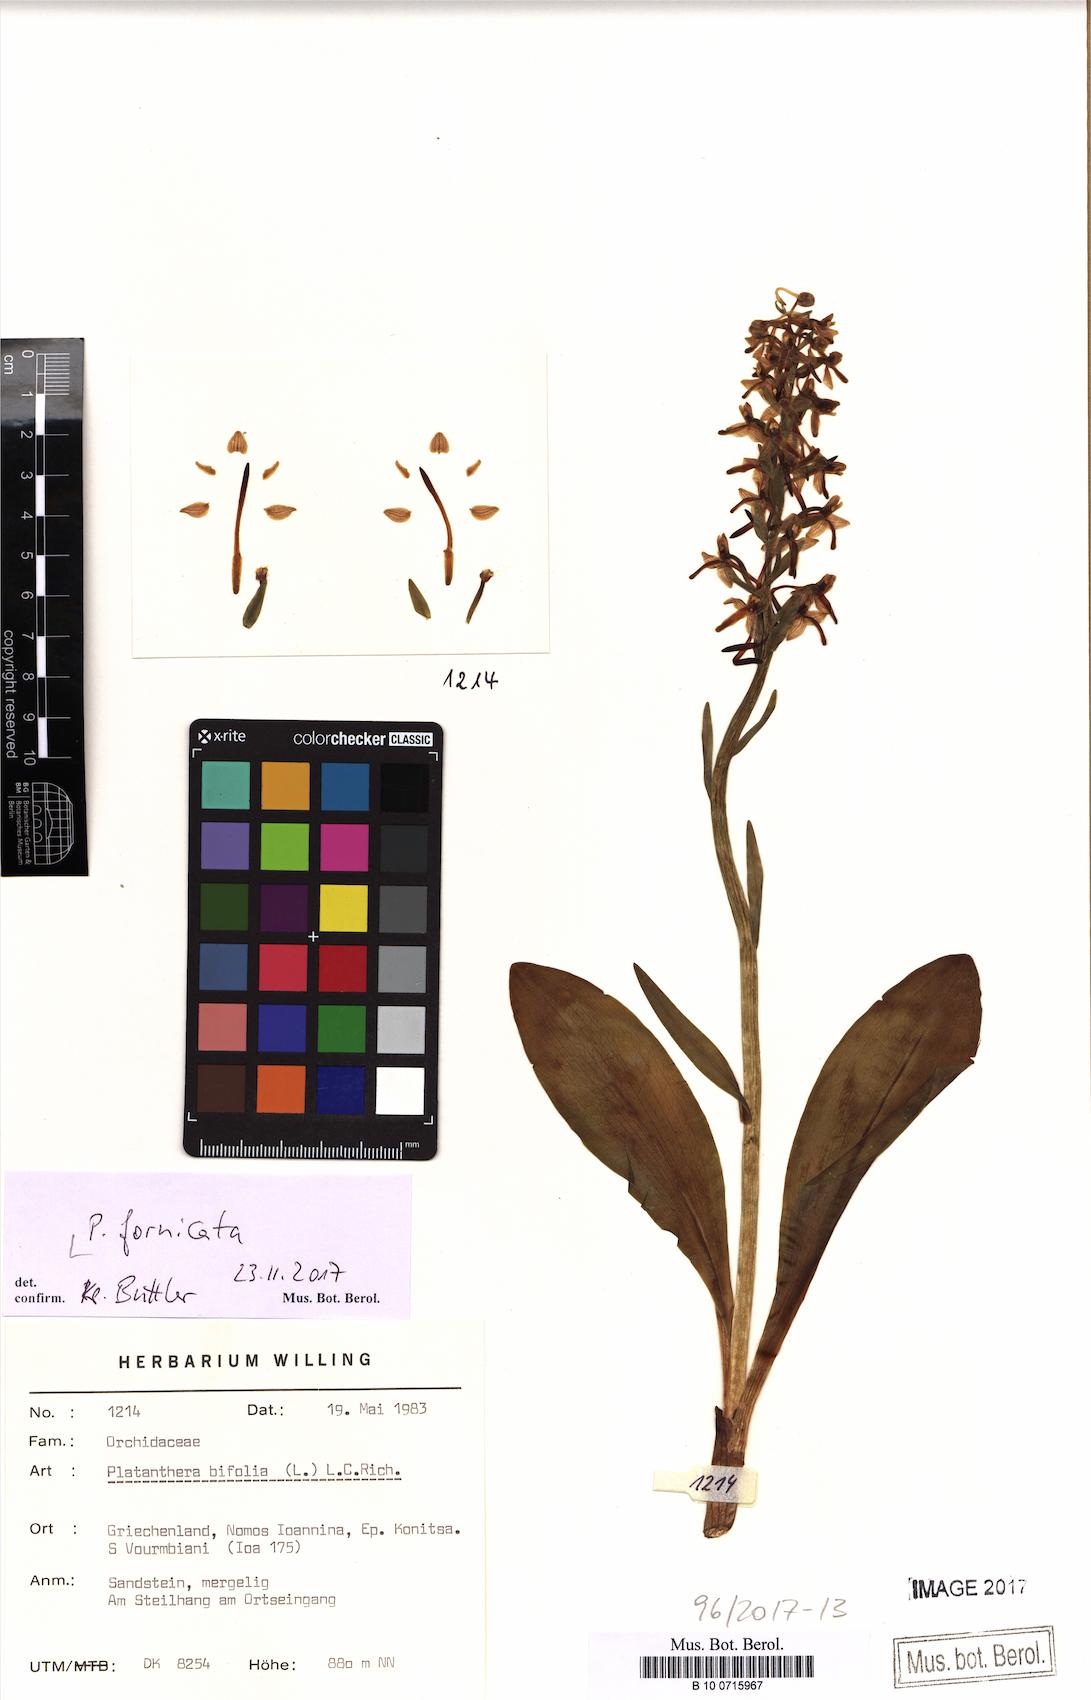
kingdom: Plantae
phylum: Tracheophyta
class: Liliopsida
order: Asparagales
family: Orchidaceae
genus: Platanthera
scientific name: Platanthera bifolia
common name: Lesser butterfly-orchid
